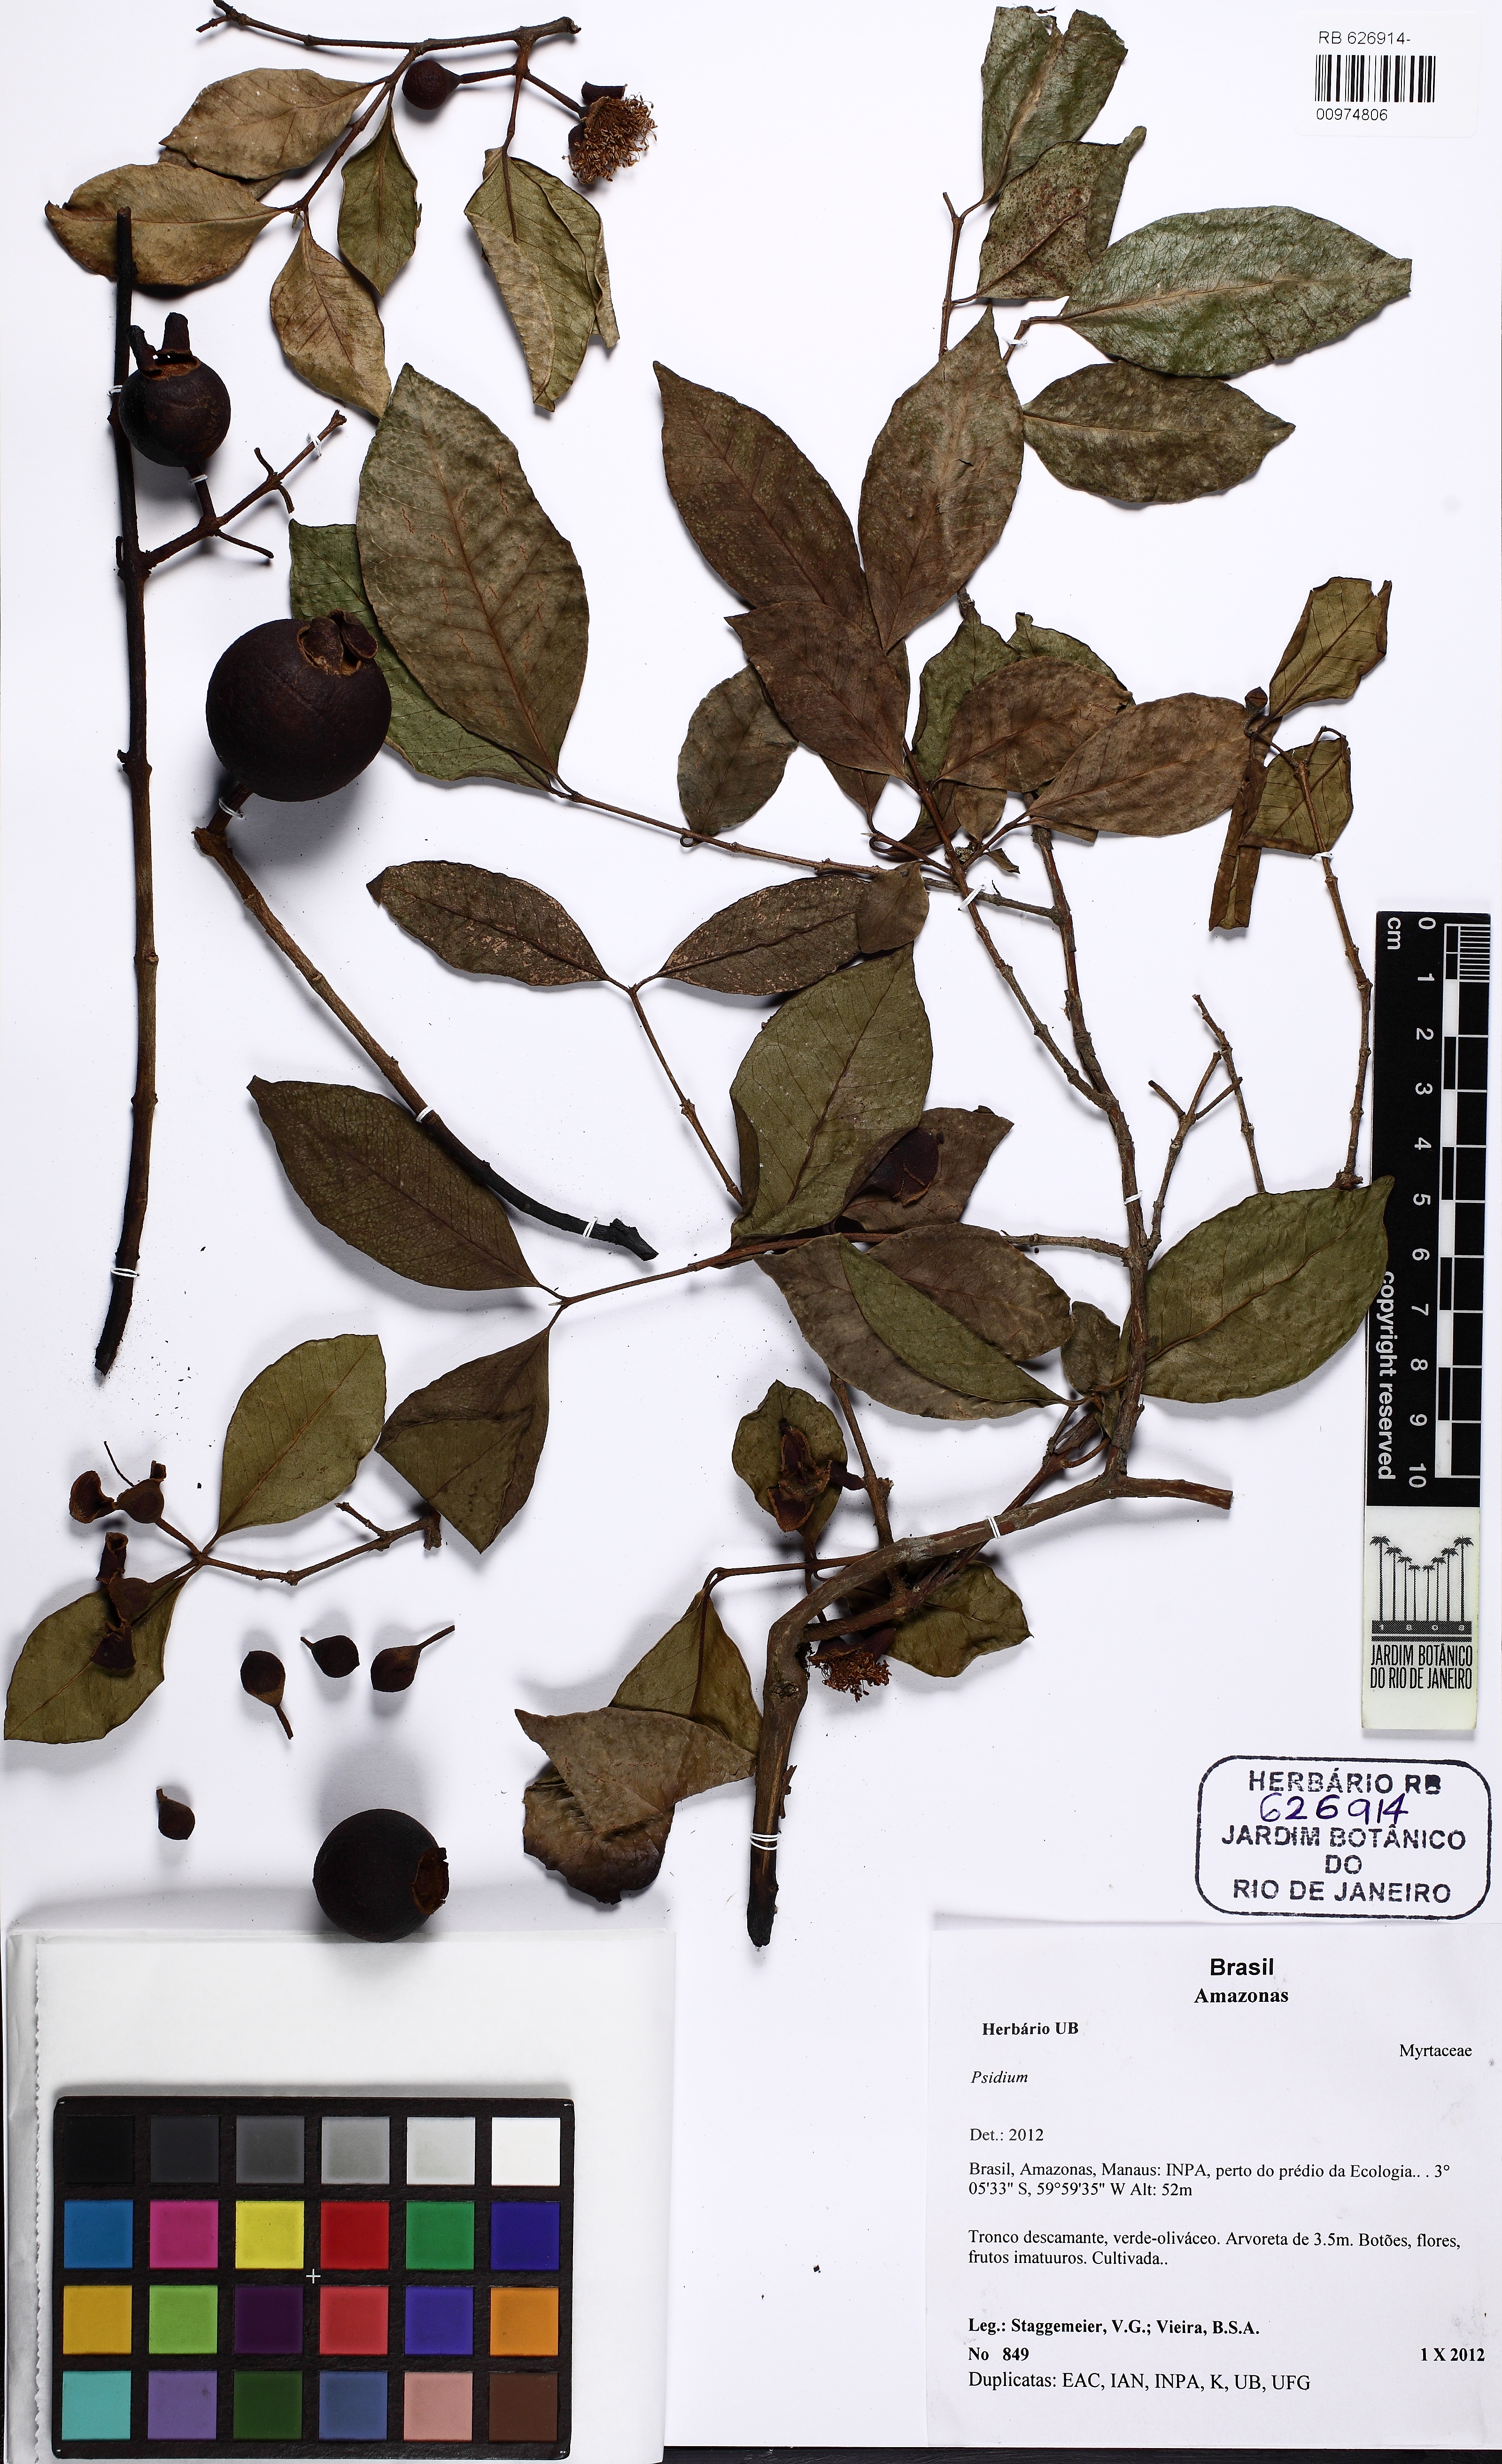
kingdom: Plantae
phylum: Tracheophyta
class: Magnoliopsida
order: Myrtales
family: Myrtaceae
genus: Psidium
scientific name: Psidium acidum
